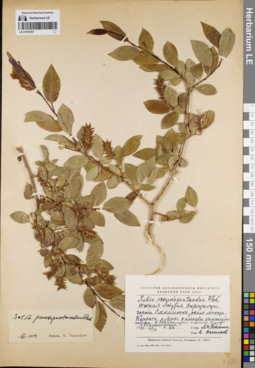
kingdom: Plantae
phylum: Tracheophyta
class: Magnoliopsida
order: Malpighiales
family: Salicaceae
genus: Salix
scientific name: Salix pseudopentandra
